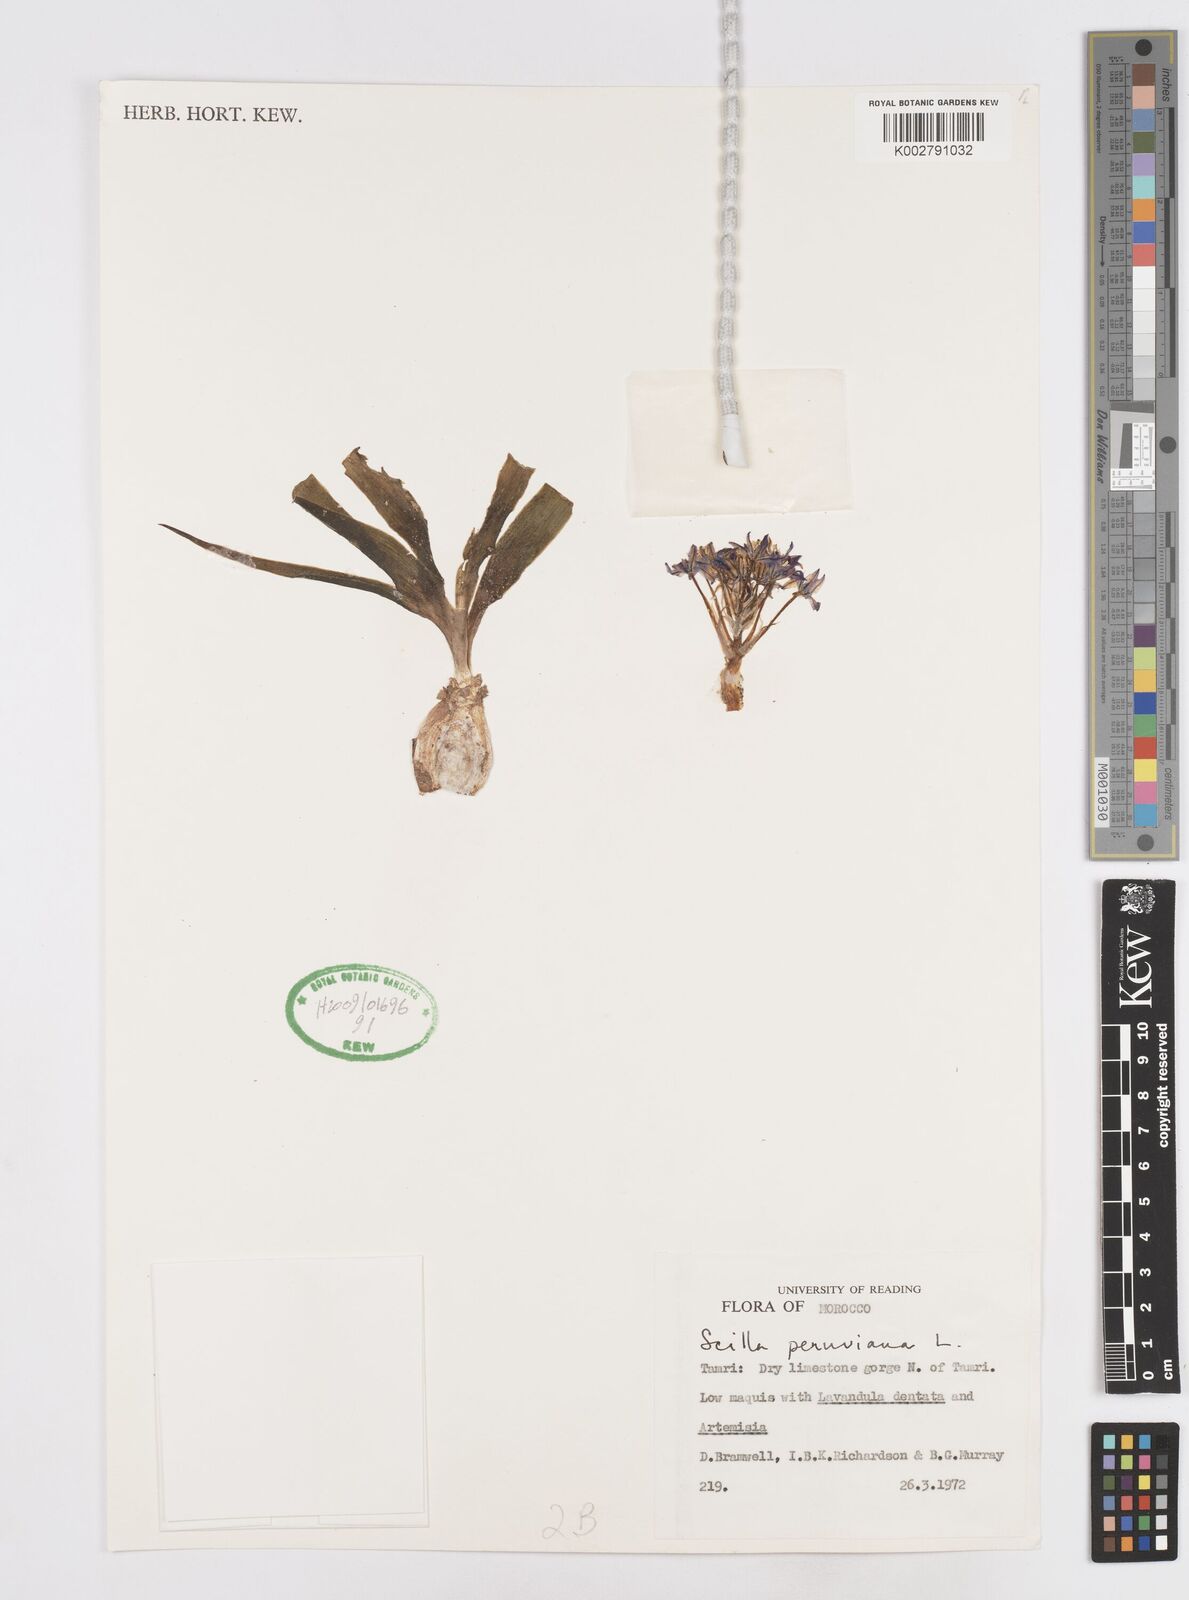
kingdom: Plantae
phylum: Tracheophyta
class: Liliopsida
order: Asparagales
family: Asparagaceae
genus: Scilla
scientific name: Scilla peruviana
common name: Portuguese squill
